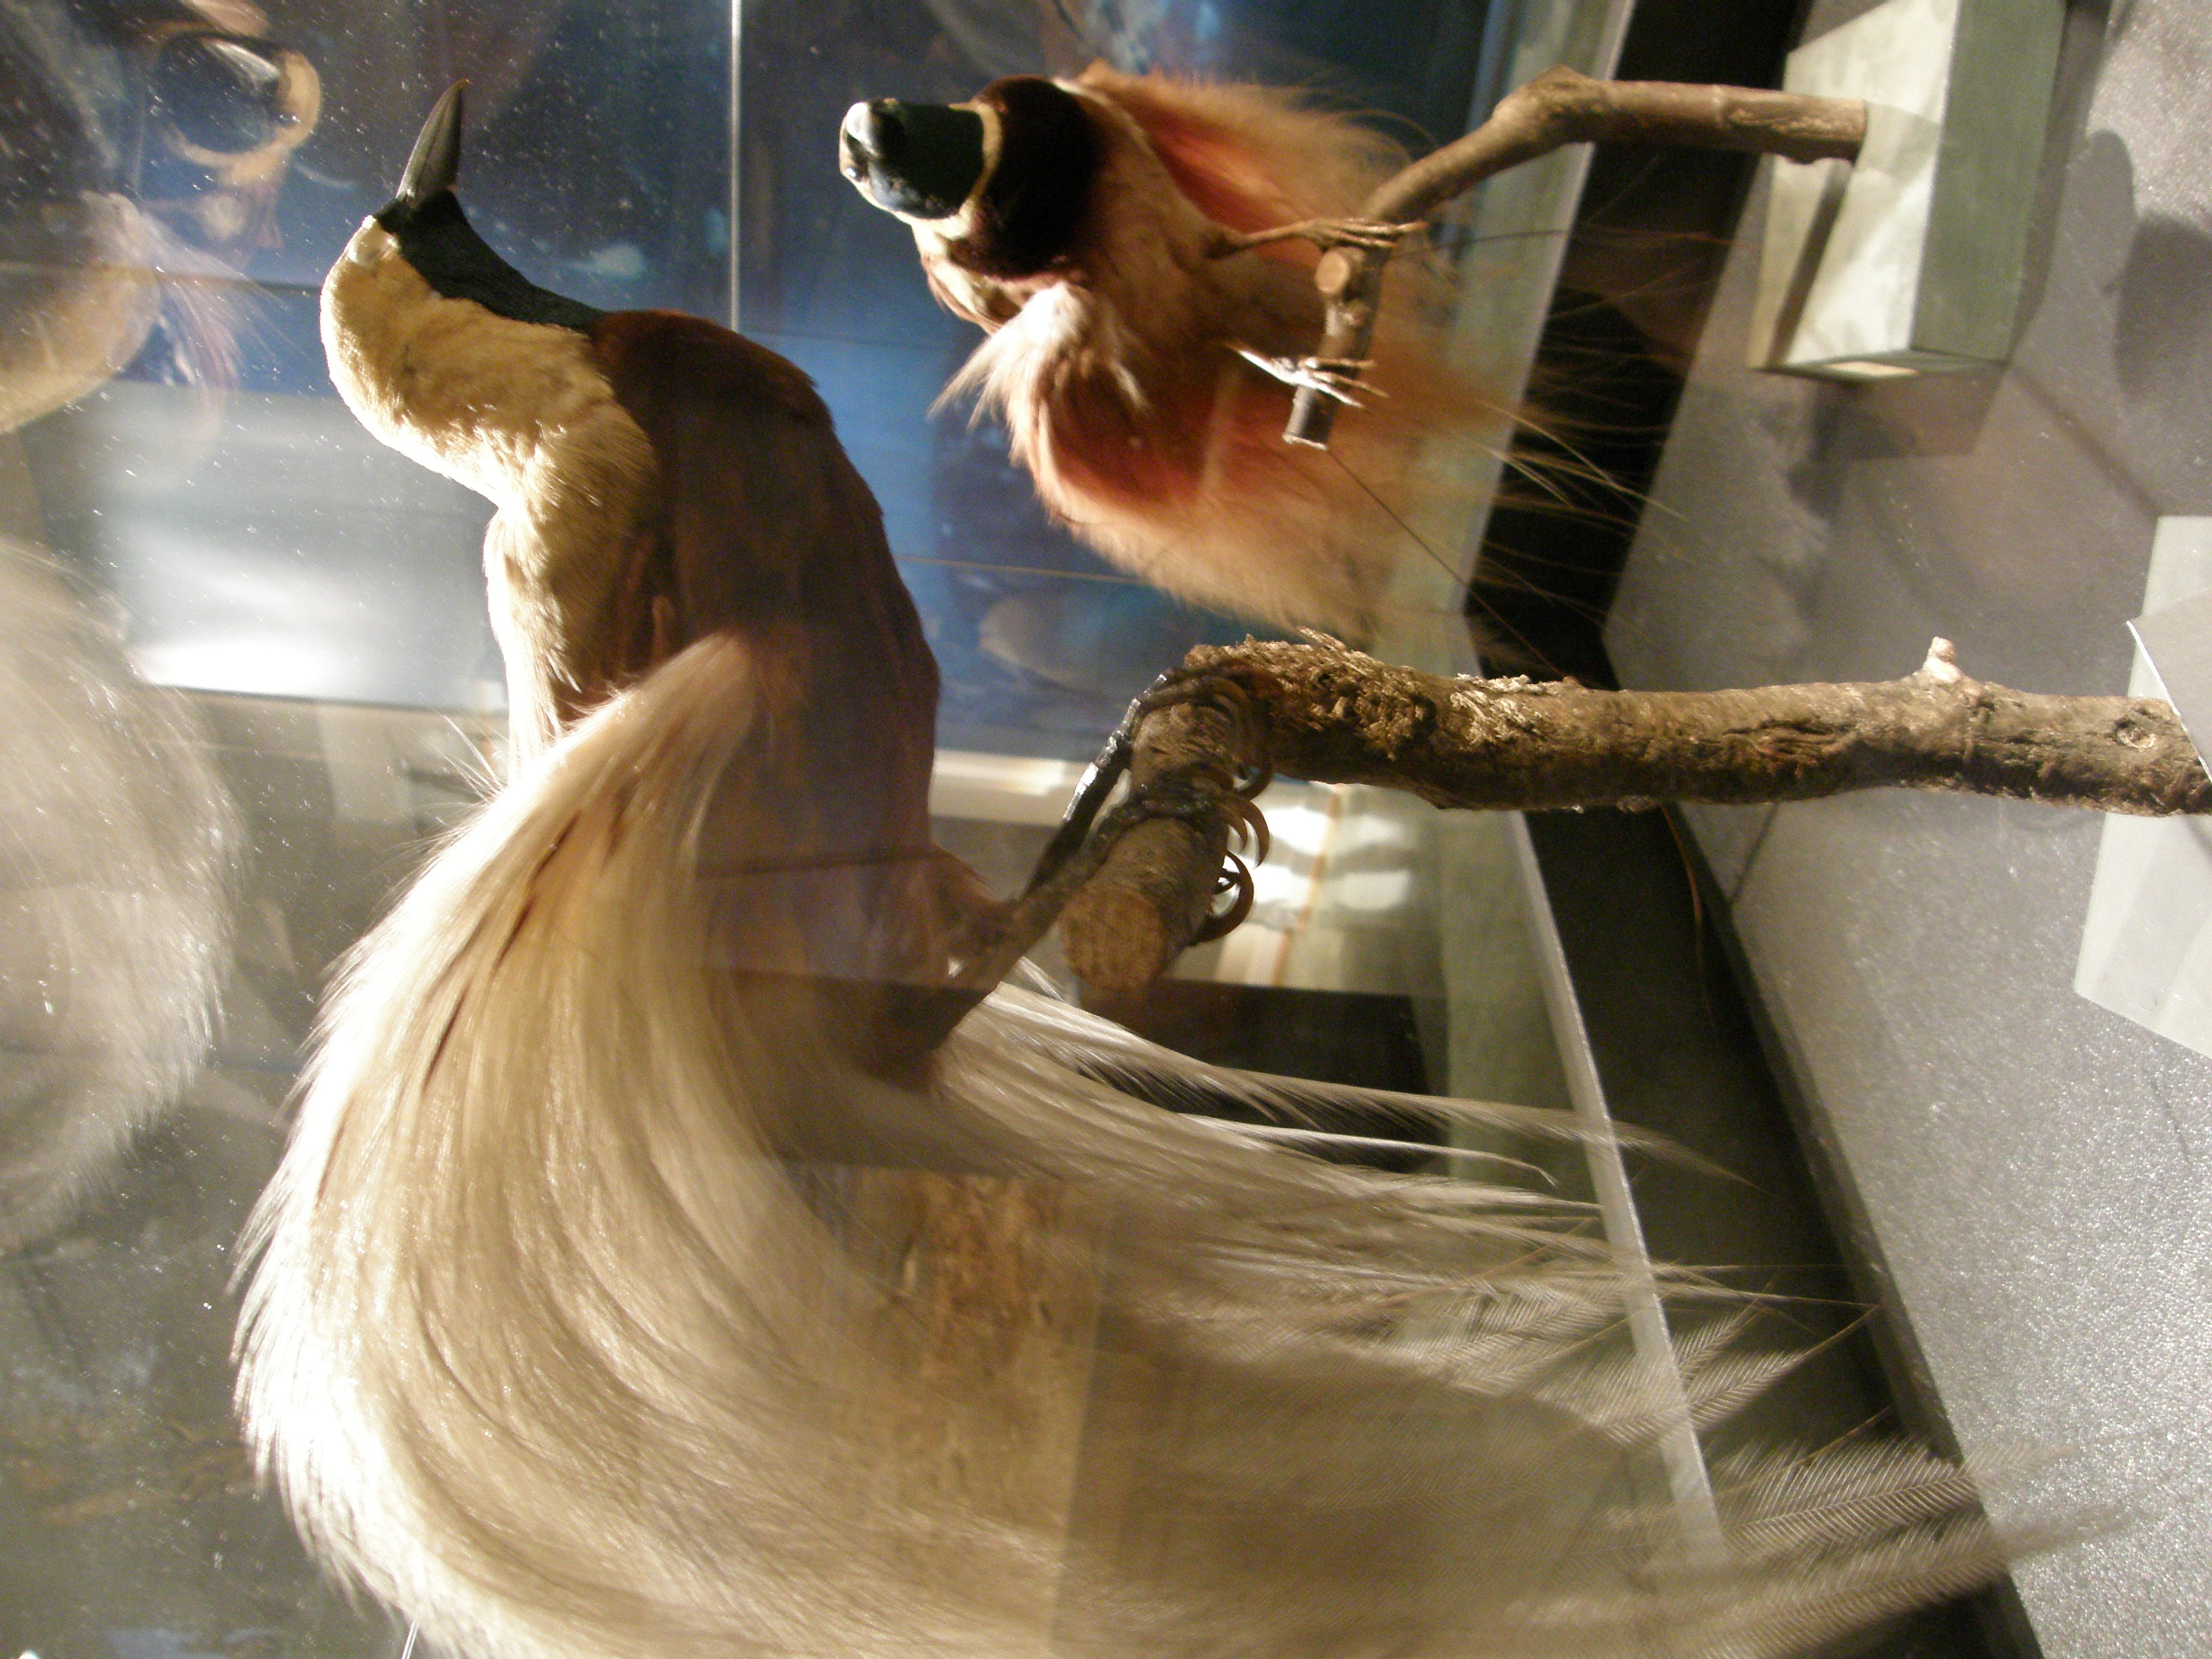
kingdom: Animalia
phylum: Chordata
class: Aves
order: Passeriformes
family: Paradisaeidae
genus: Paradisaea
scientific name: Paradisaea minor
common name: Lesser bird-of-paradise
